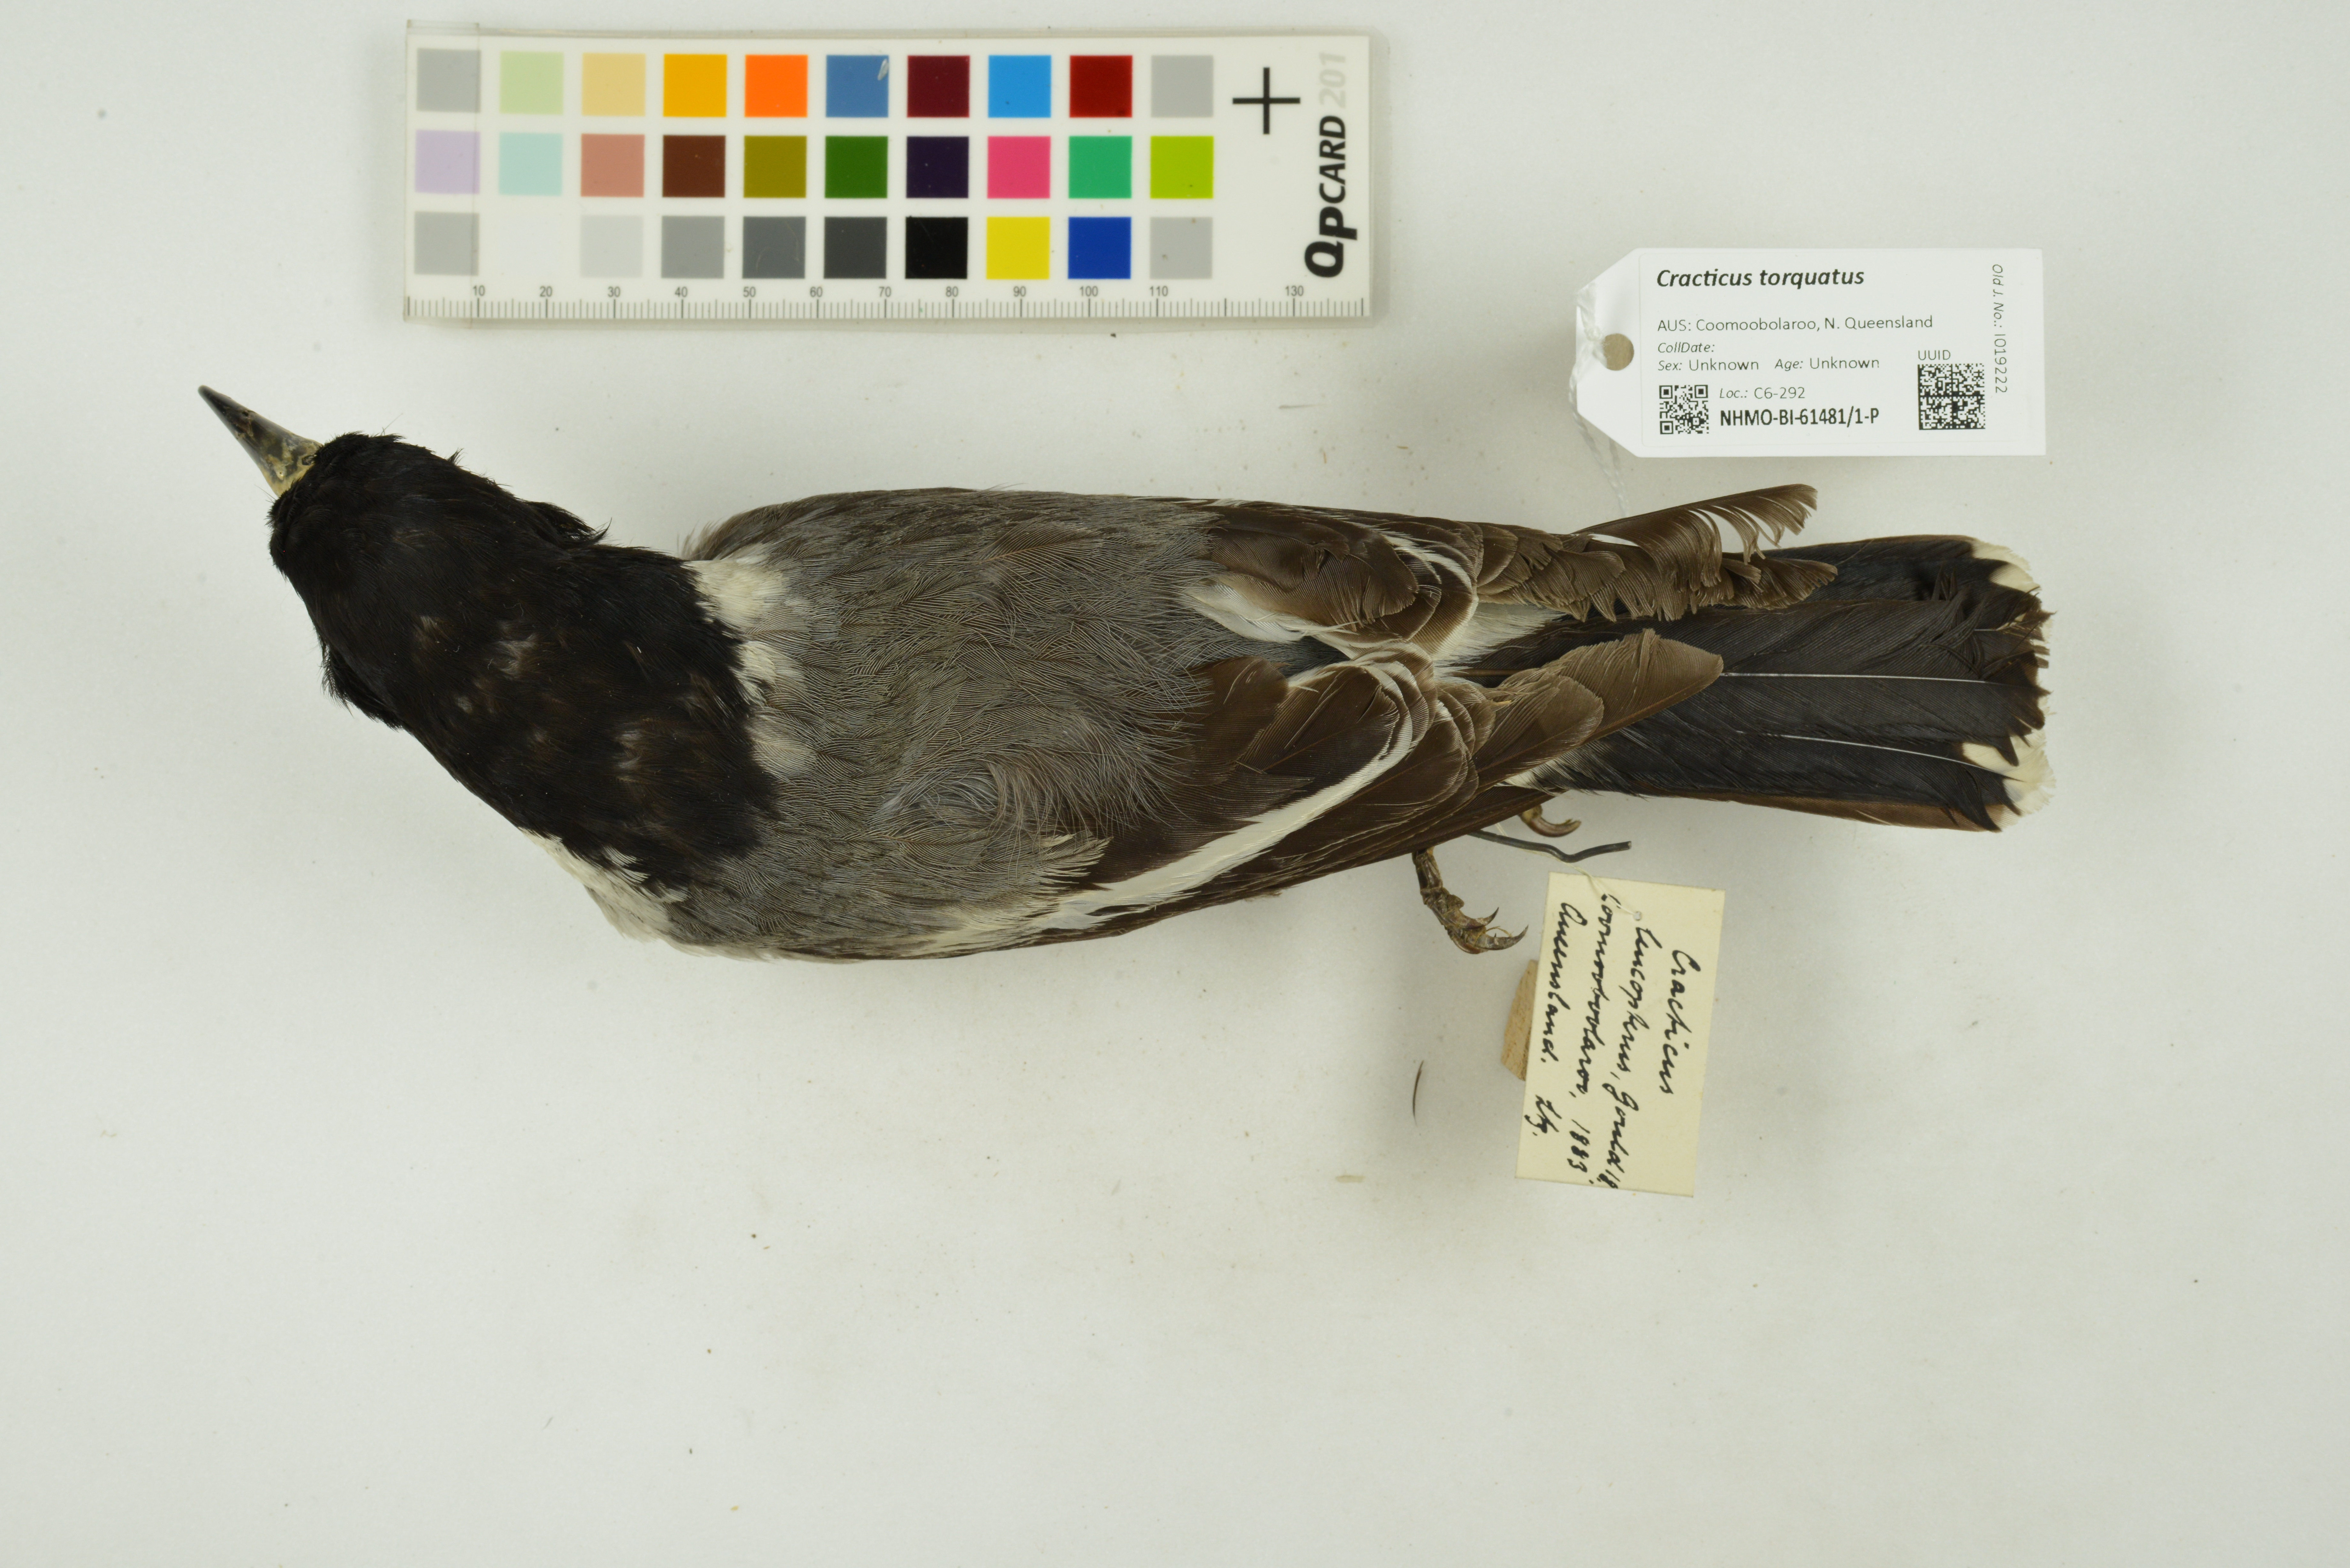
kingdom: Animalia
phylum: Chordata
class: Aves
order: Passeriformes
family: Cracticidae
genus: Cracticus
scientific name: Cracticus torquatus
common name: Grey butcherbird
